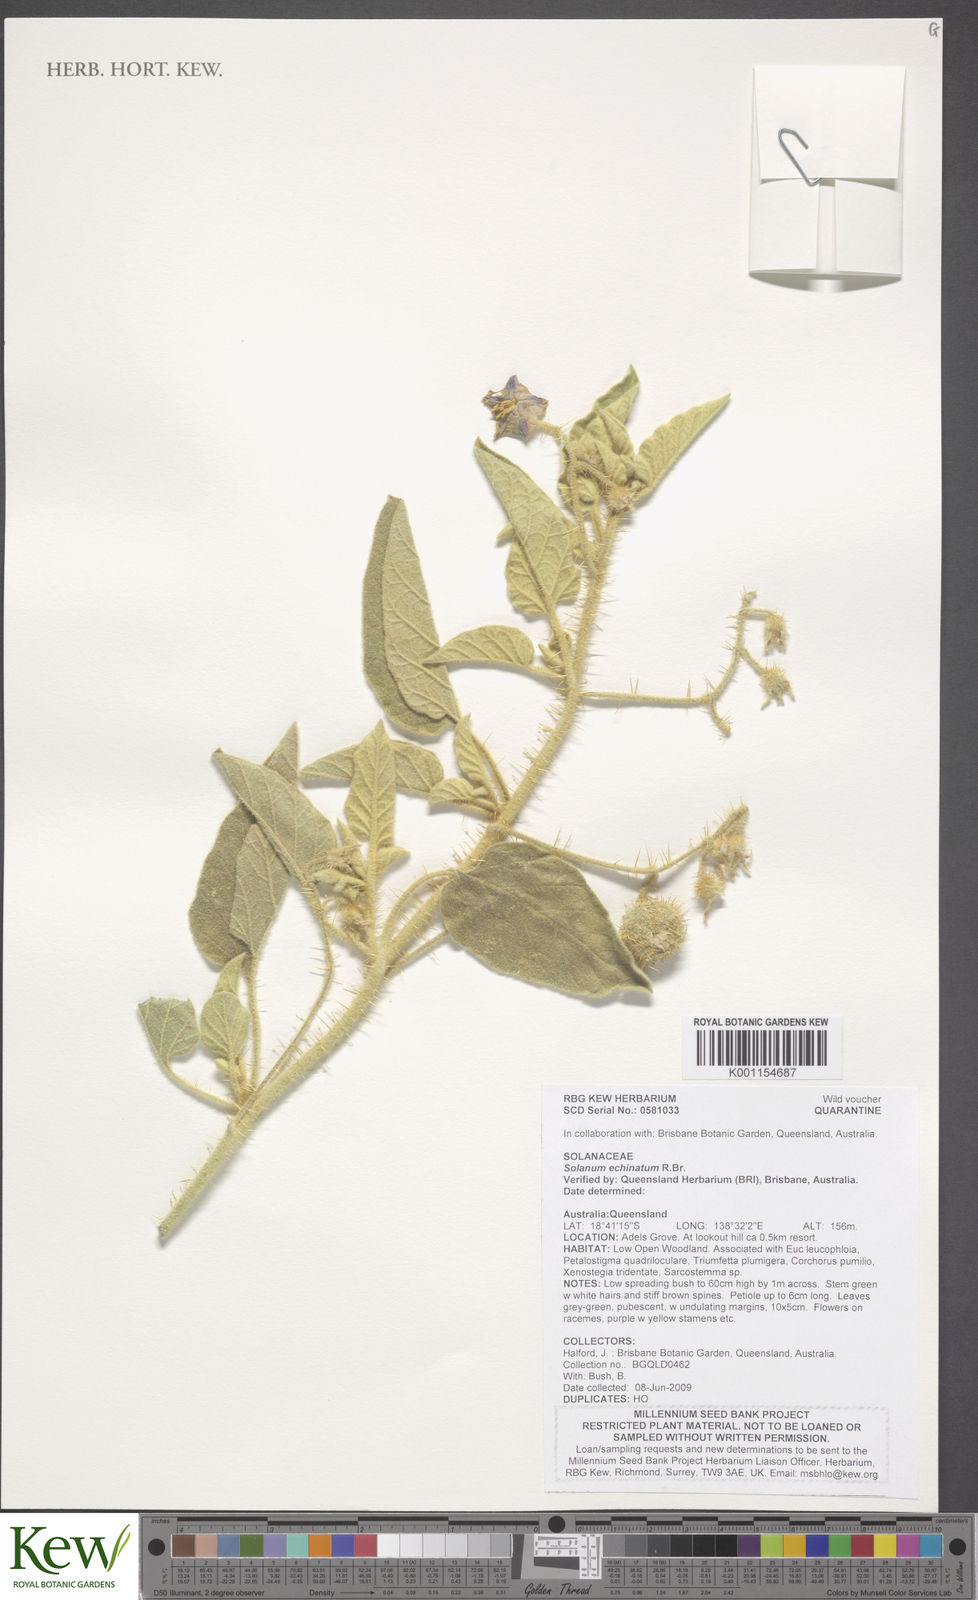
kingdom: Plantae
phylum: Tracheophyta
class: Magnoliopsida
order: Solanales
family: Solanaceae
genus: Solanum
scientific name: Solanum echinatum
